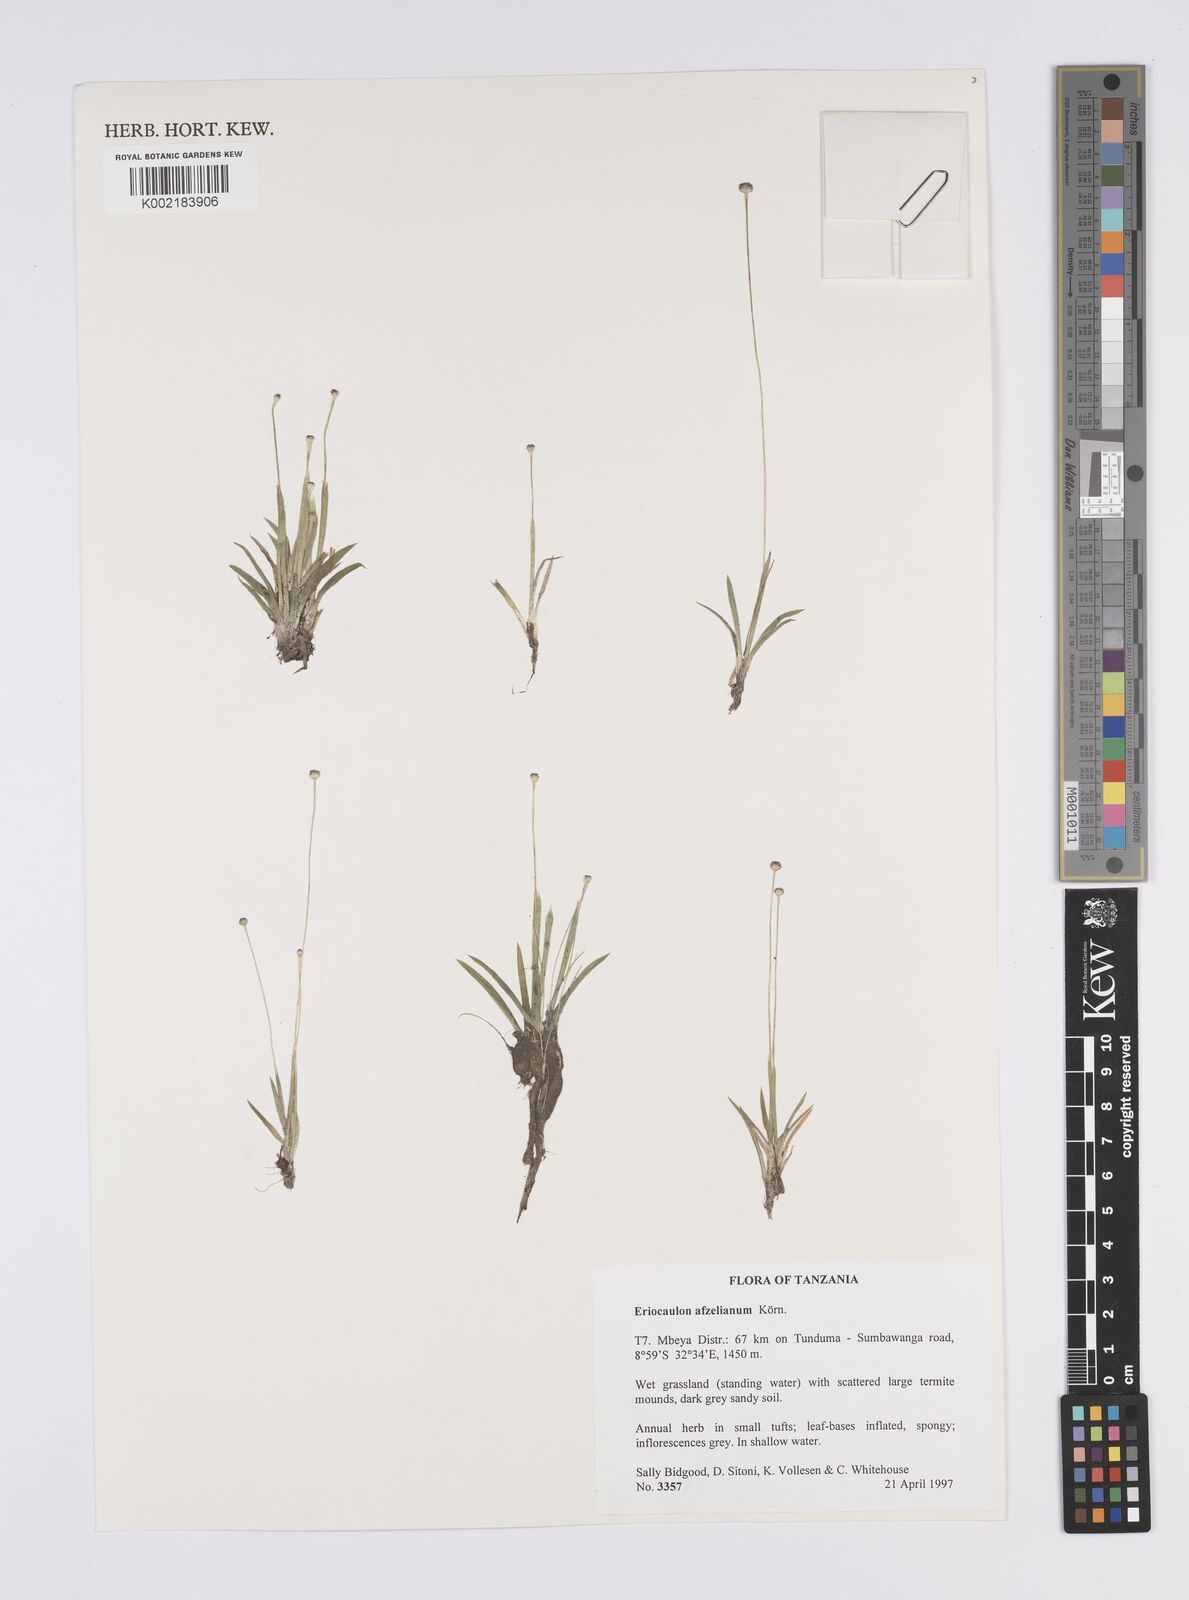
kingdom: Plantae
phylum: Tracheophyta
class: Liliopsida
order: Poales
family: Eriocaulaceae
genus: Eriocaulon
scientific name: Eriocaulon afzelianum
